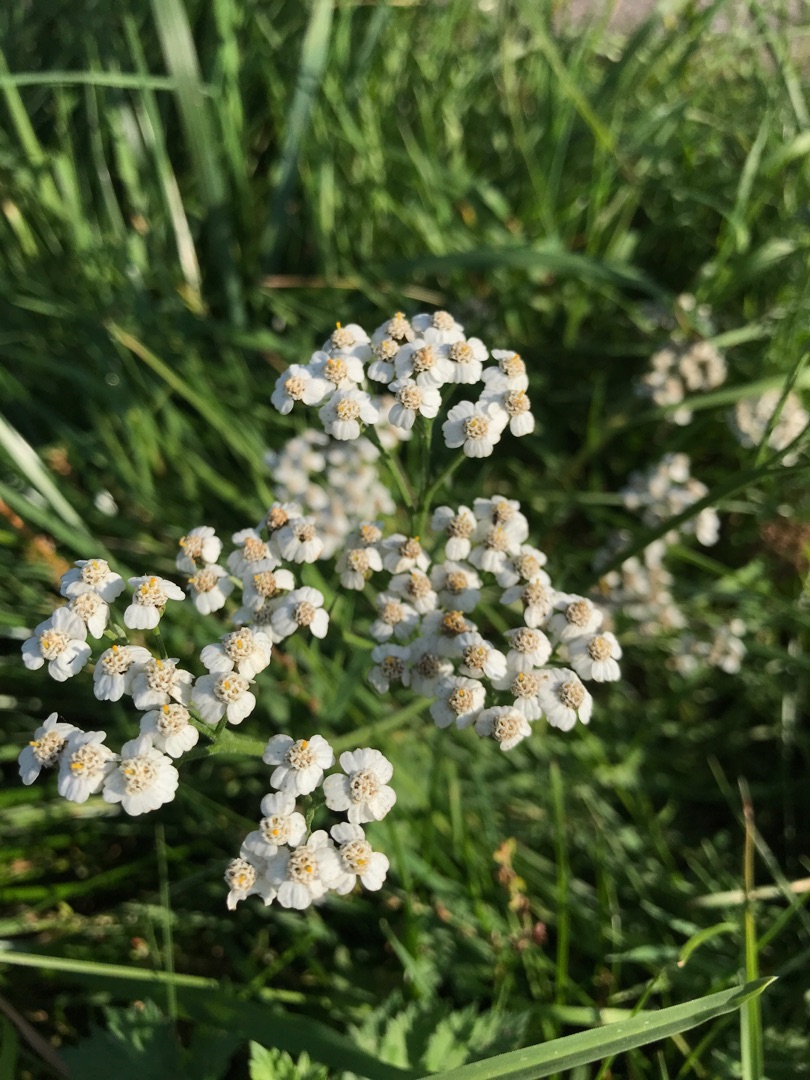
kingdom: Plantae
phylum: Tracheophyta
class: Magnoliopsida
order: Asterales
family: Asteraceae
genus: Achillea
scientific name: Achillea millefolium
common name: Almindelig røllike
